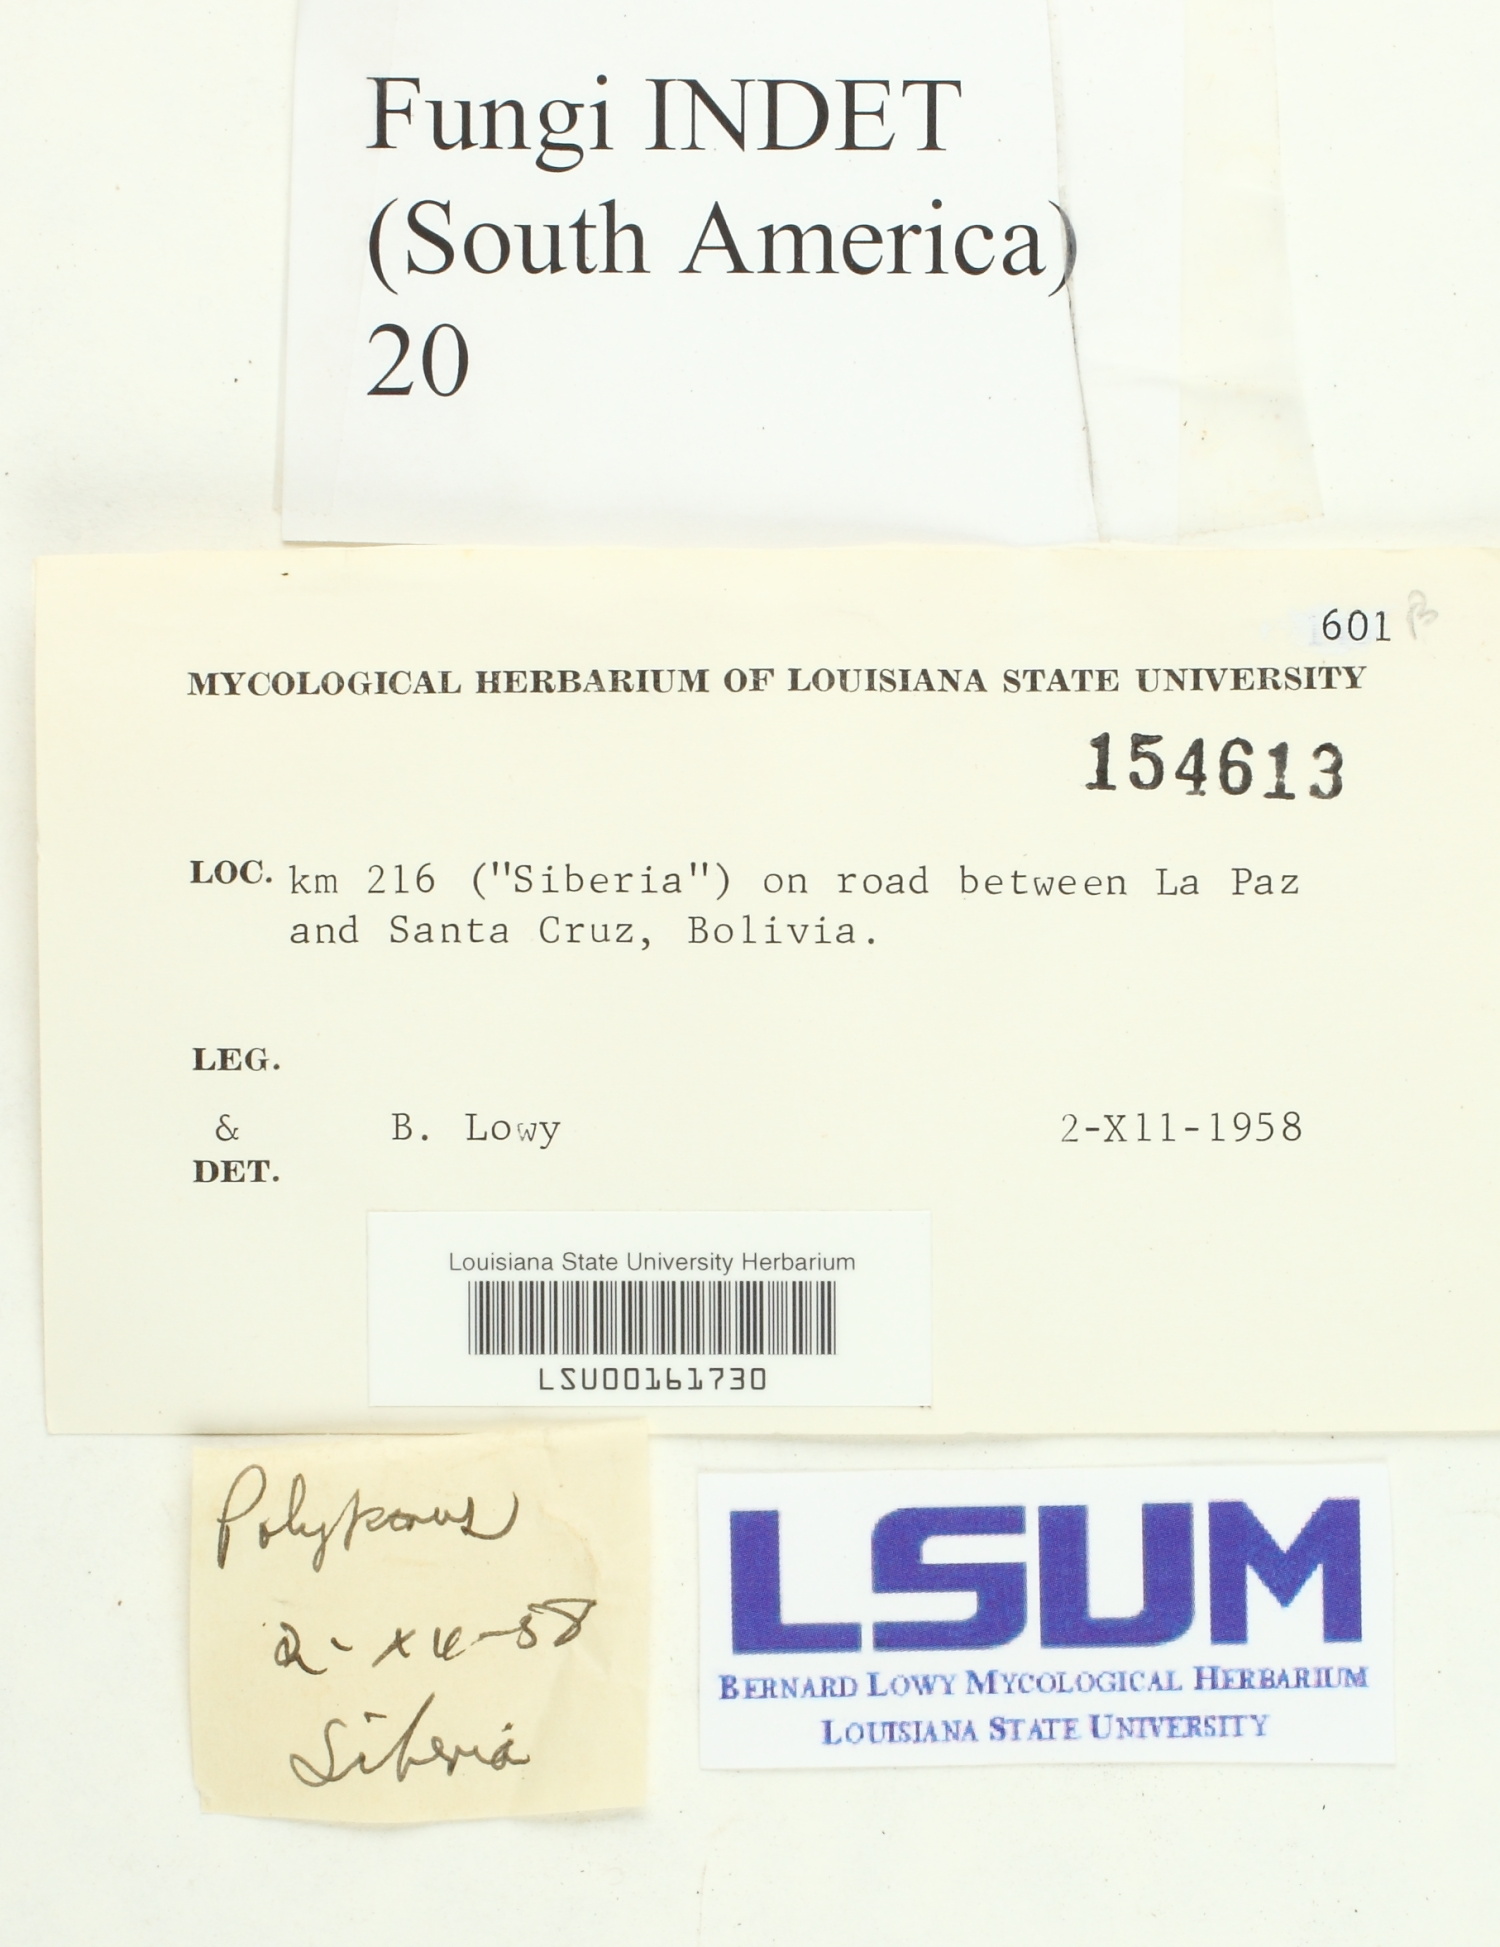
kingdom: Fungi
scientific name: Fungi
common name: Fungi
